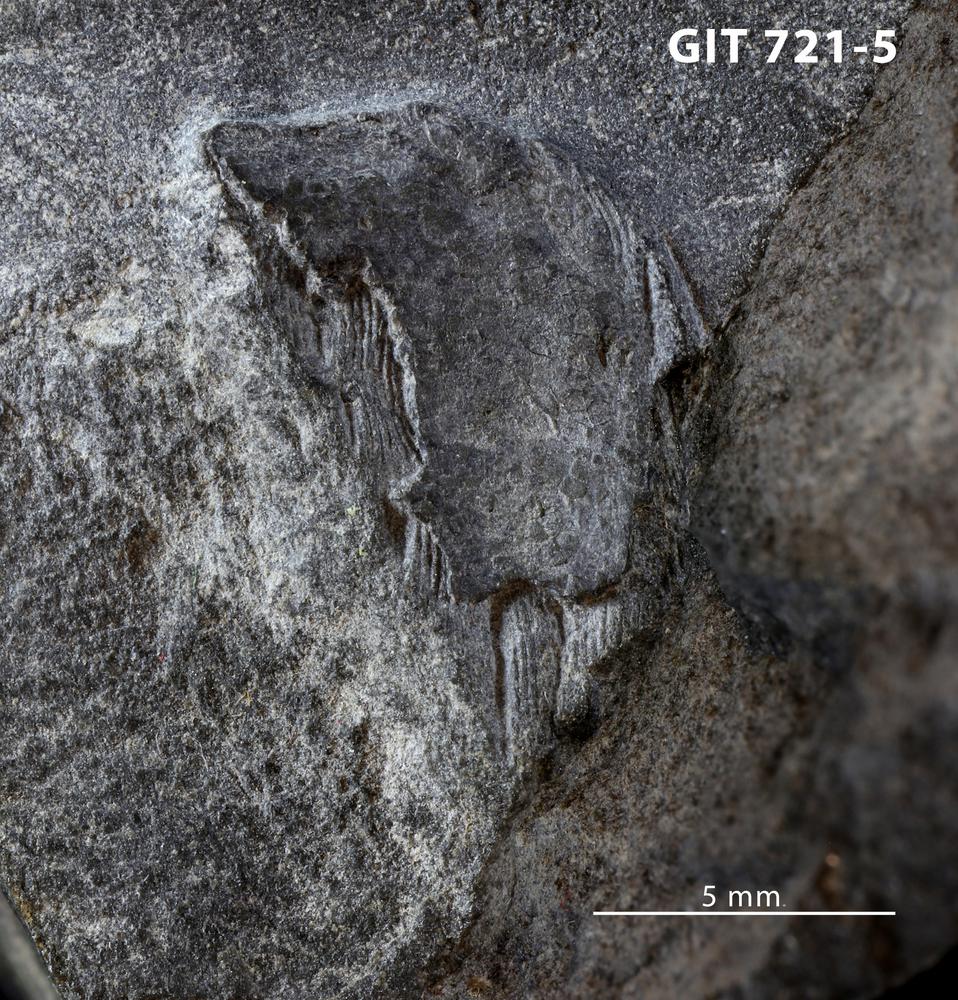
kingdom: Animalia
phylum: Chordata
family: Tolypelepididae
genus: Tolypelepis
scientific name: Tolypelepis
